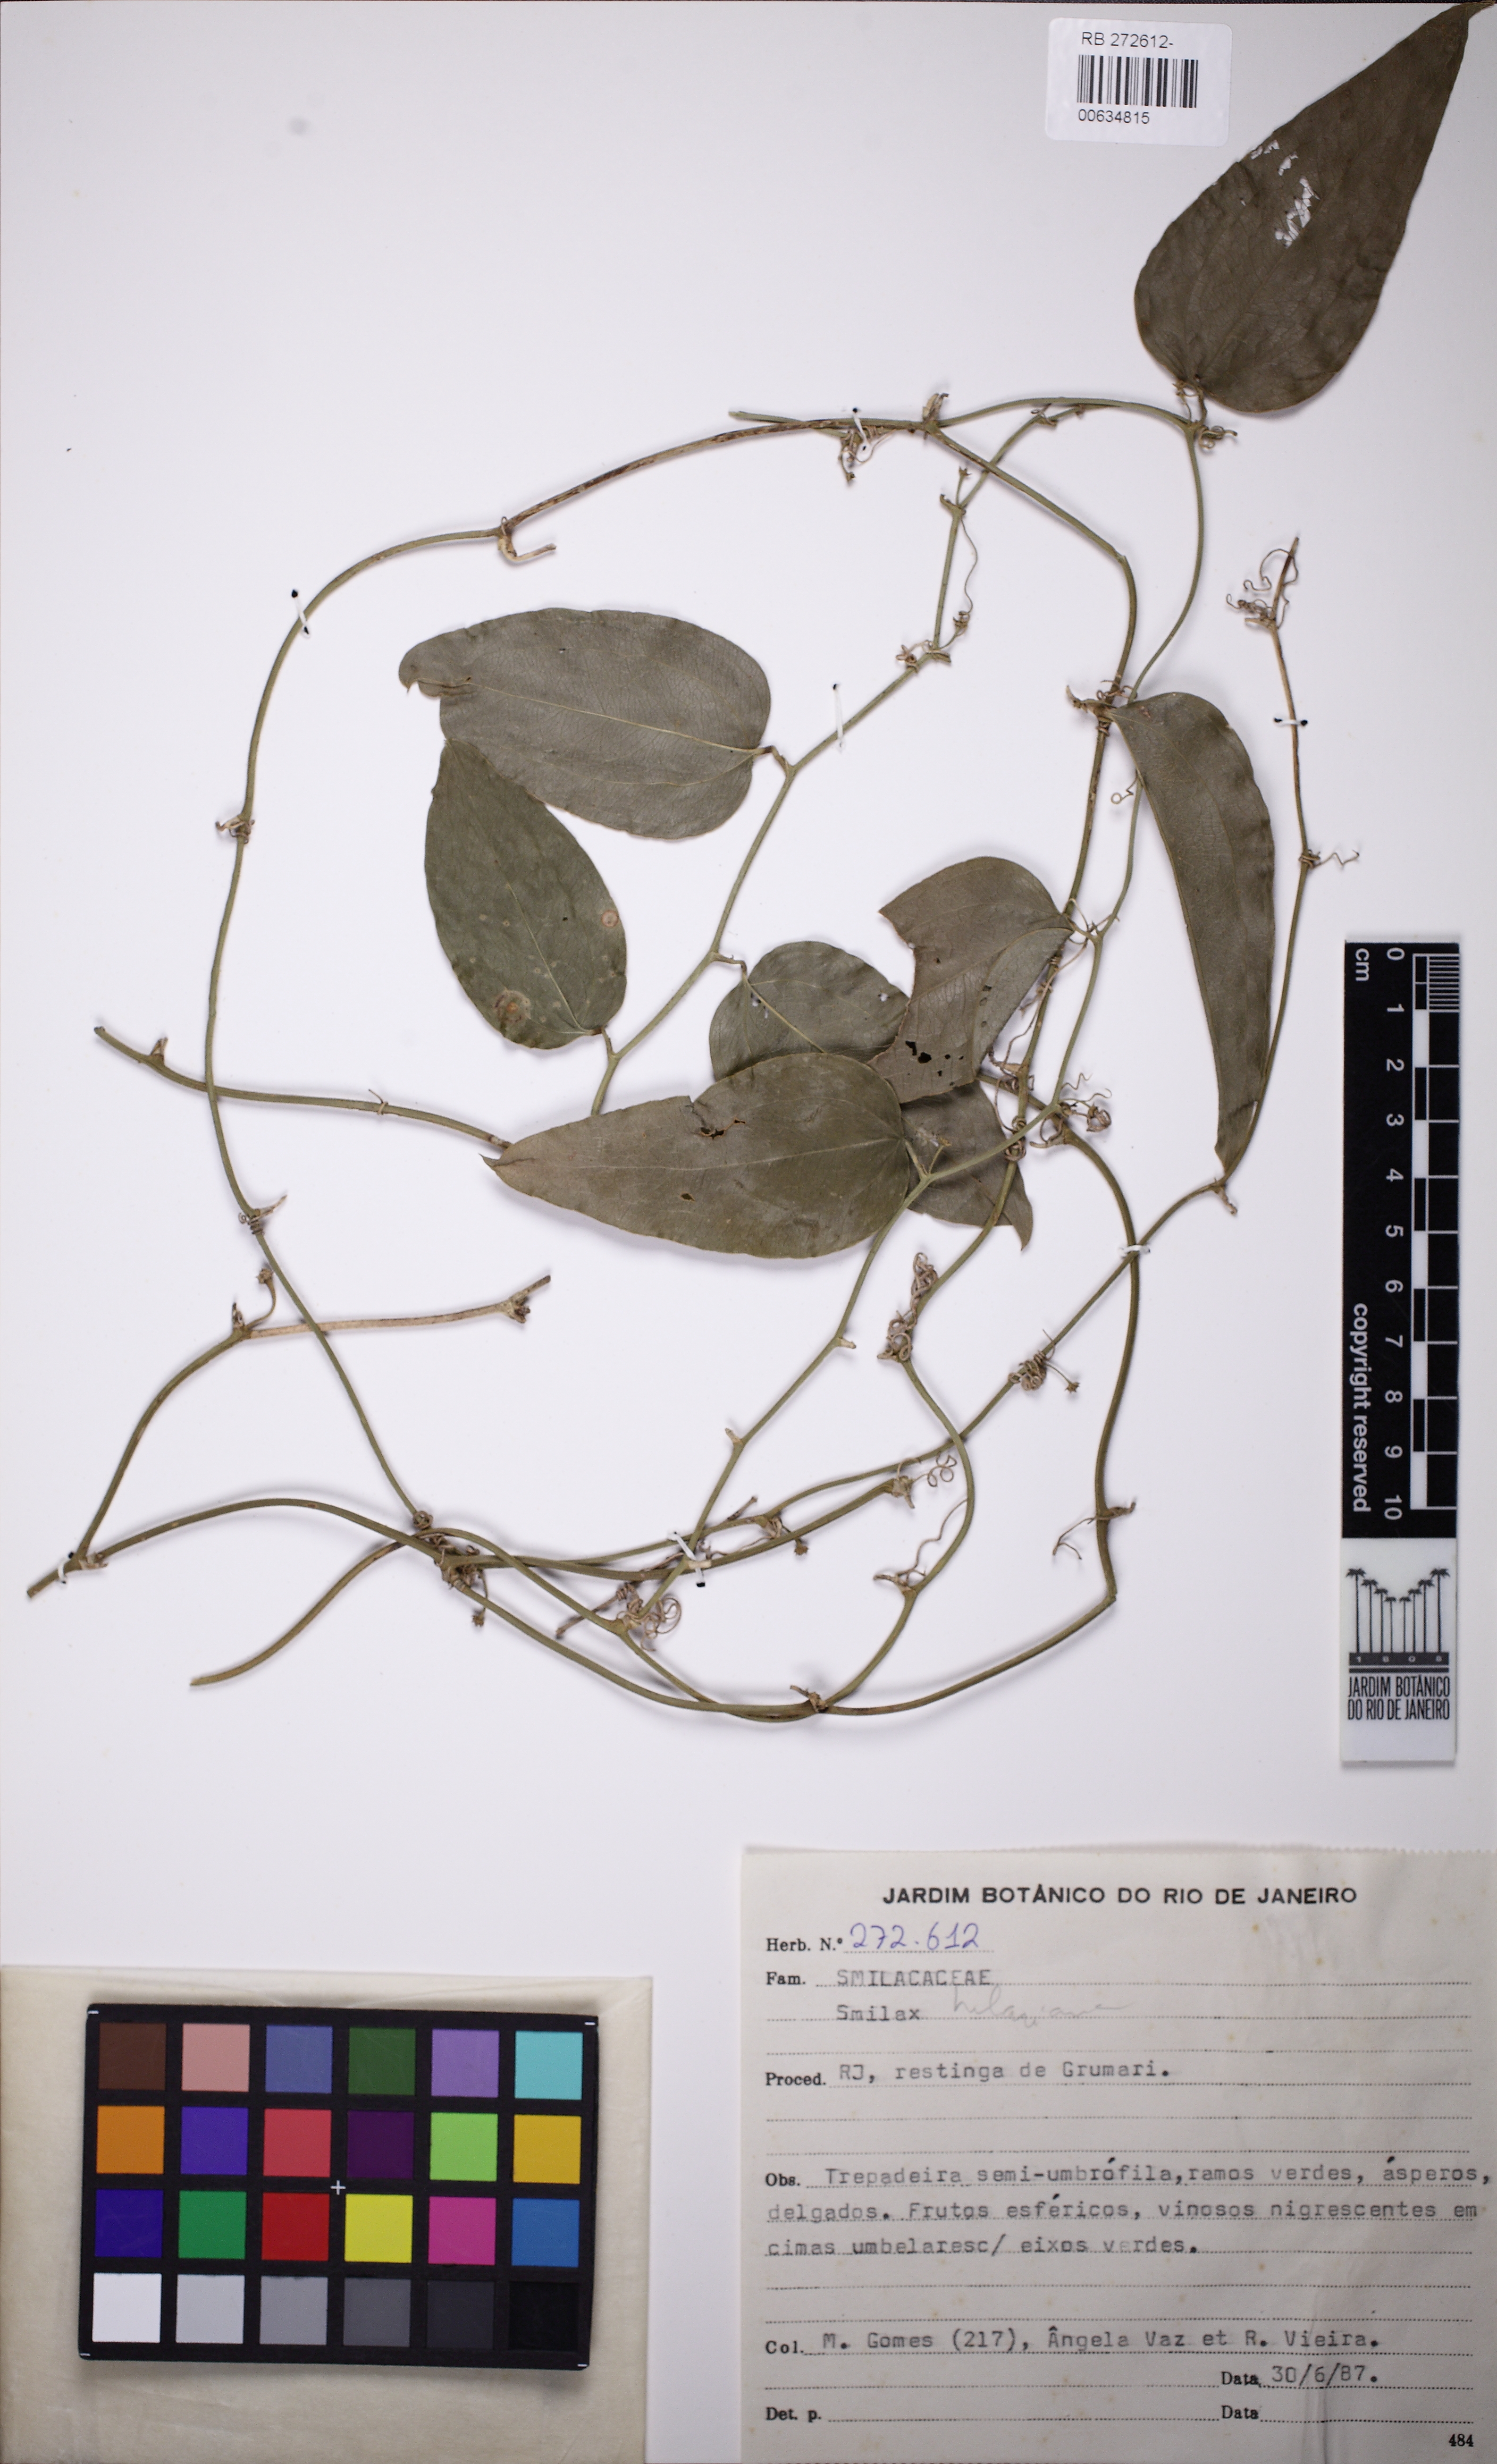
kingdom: Plantae
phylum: Tracheophyta
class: Liliopsida
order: Liliales
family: Smilacaceae
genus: Smilax
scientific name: Smilax
